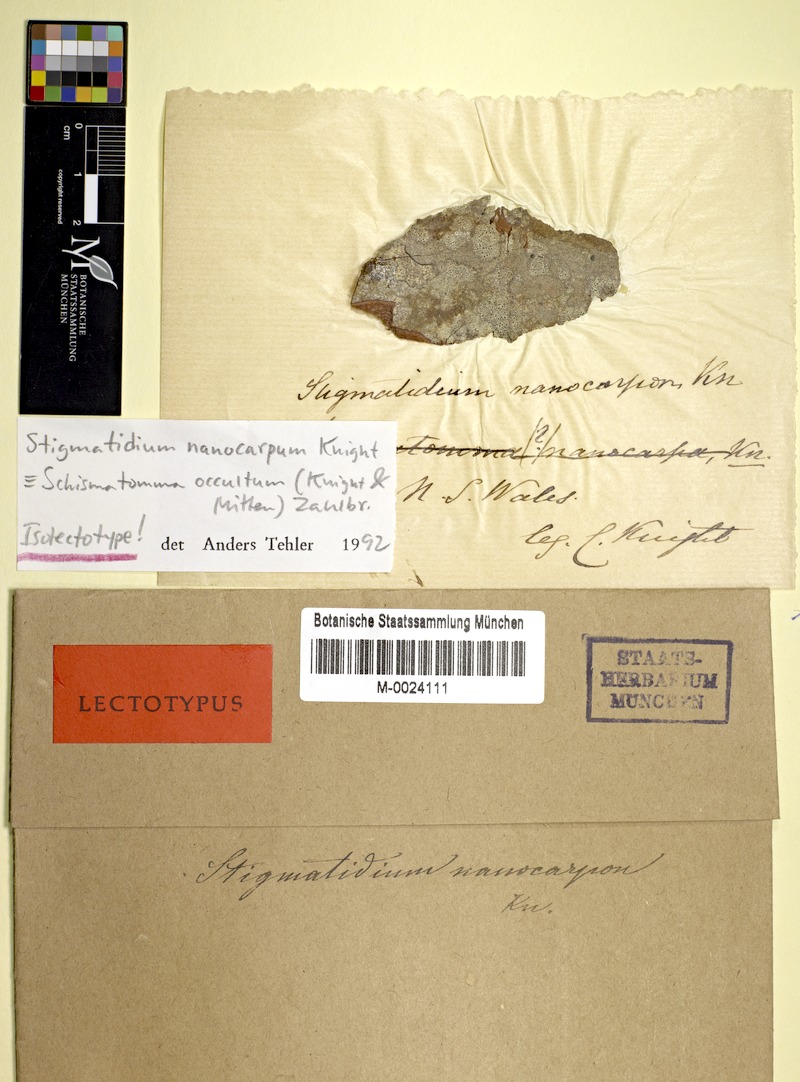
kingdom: Fungi
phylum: Ascomycota
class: Arthoniomycetes
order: Arthoniales
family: Roccellaceae
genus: Schismatomma
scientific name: Schismatomma occultum
